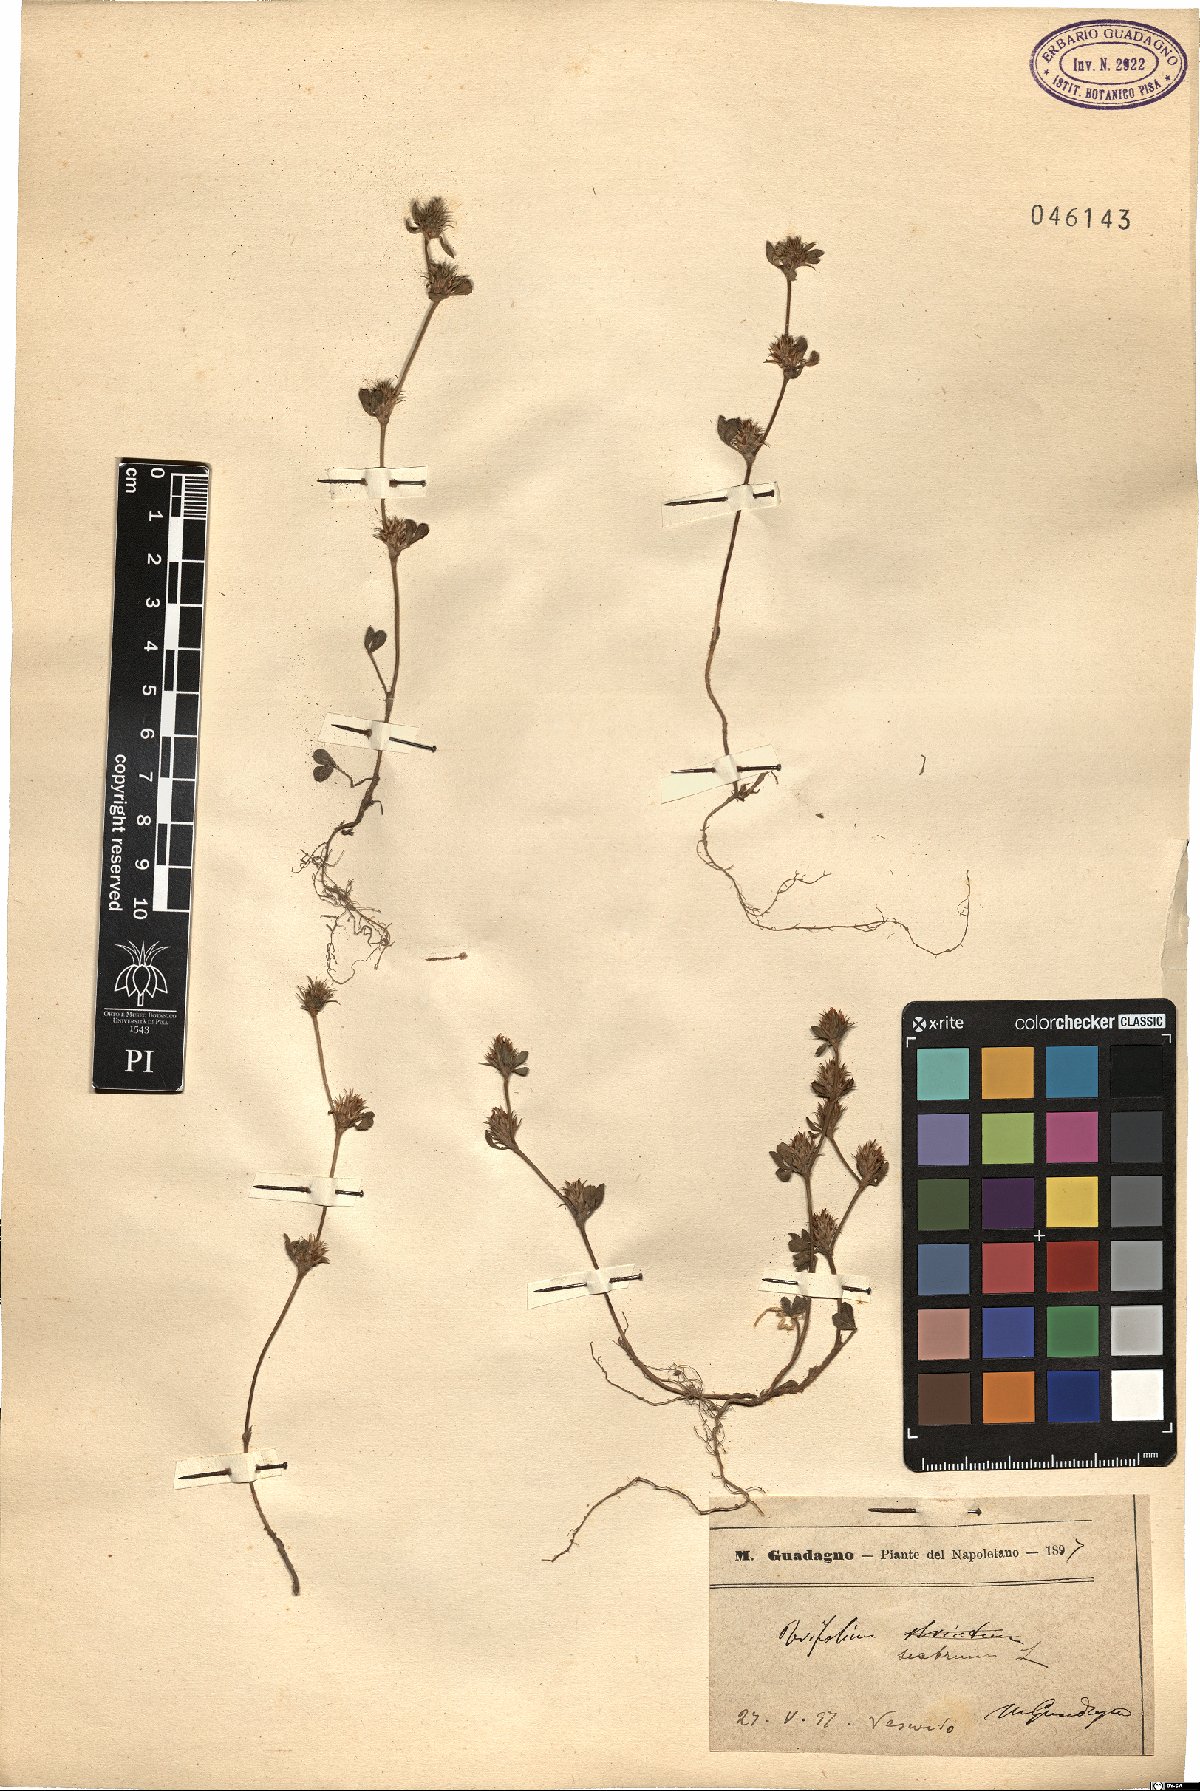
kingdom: Plantae
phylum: Tracheophyta
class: Magnoliopsida
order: Fabales
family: Fabaceae
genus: Trifolium
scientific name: Trifolium scabrum
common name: Rough clover
